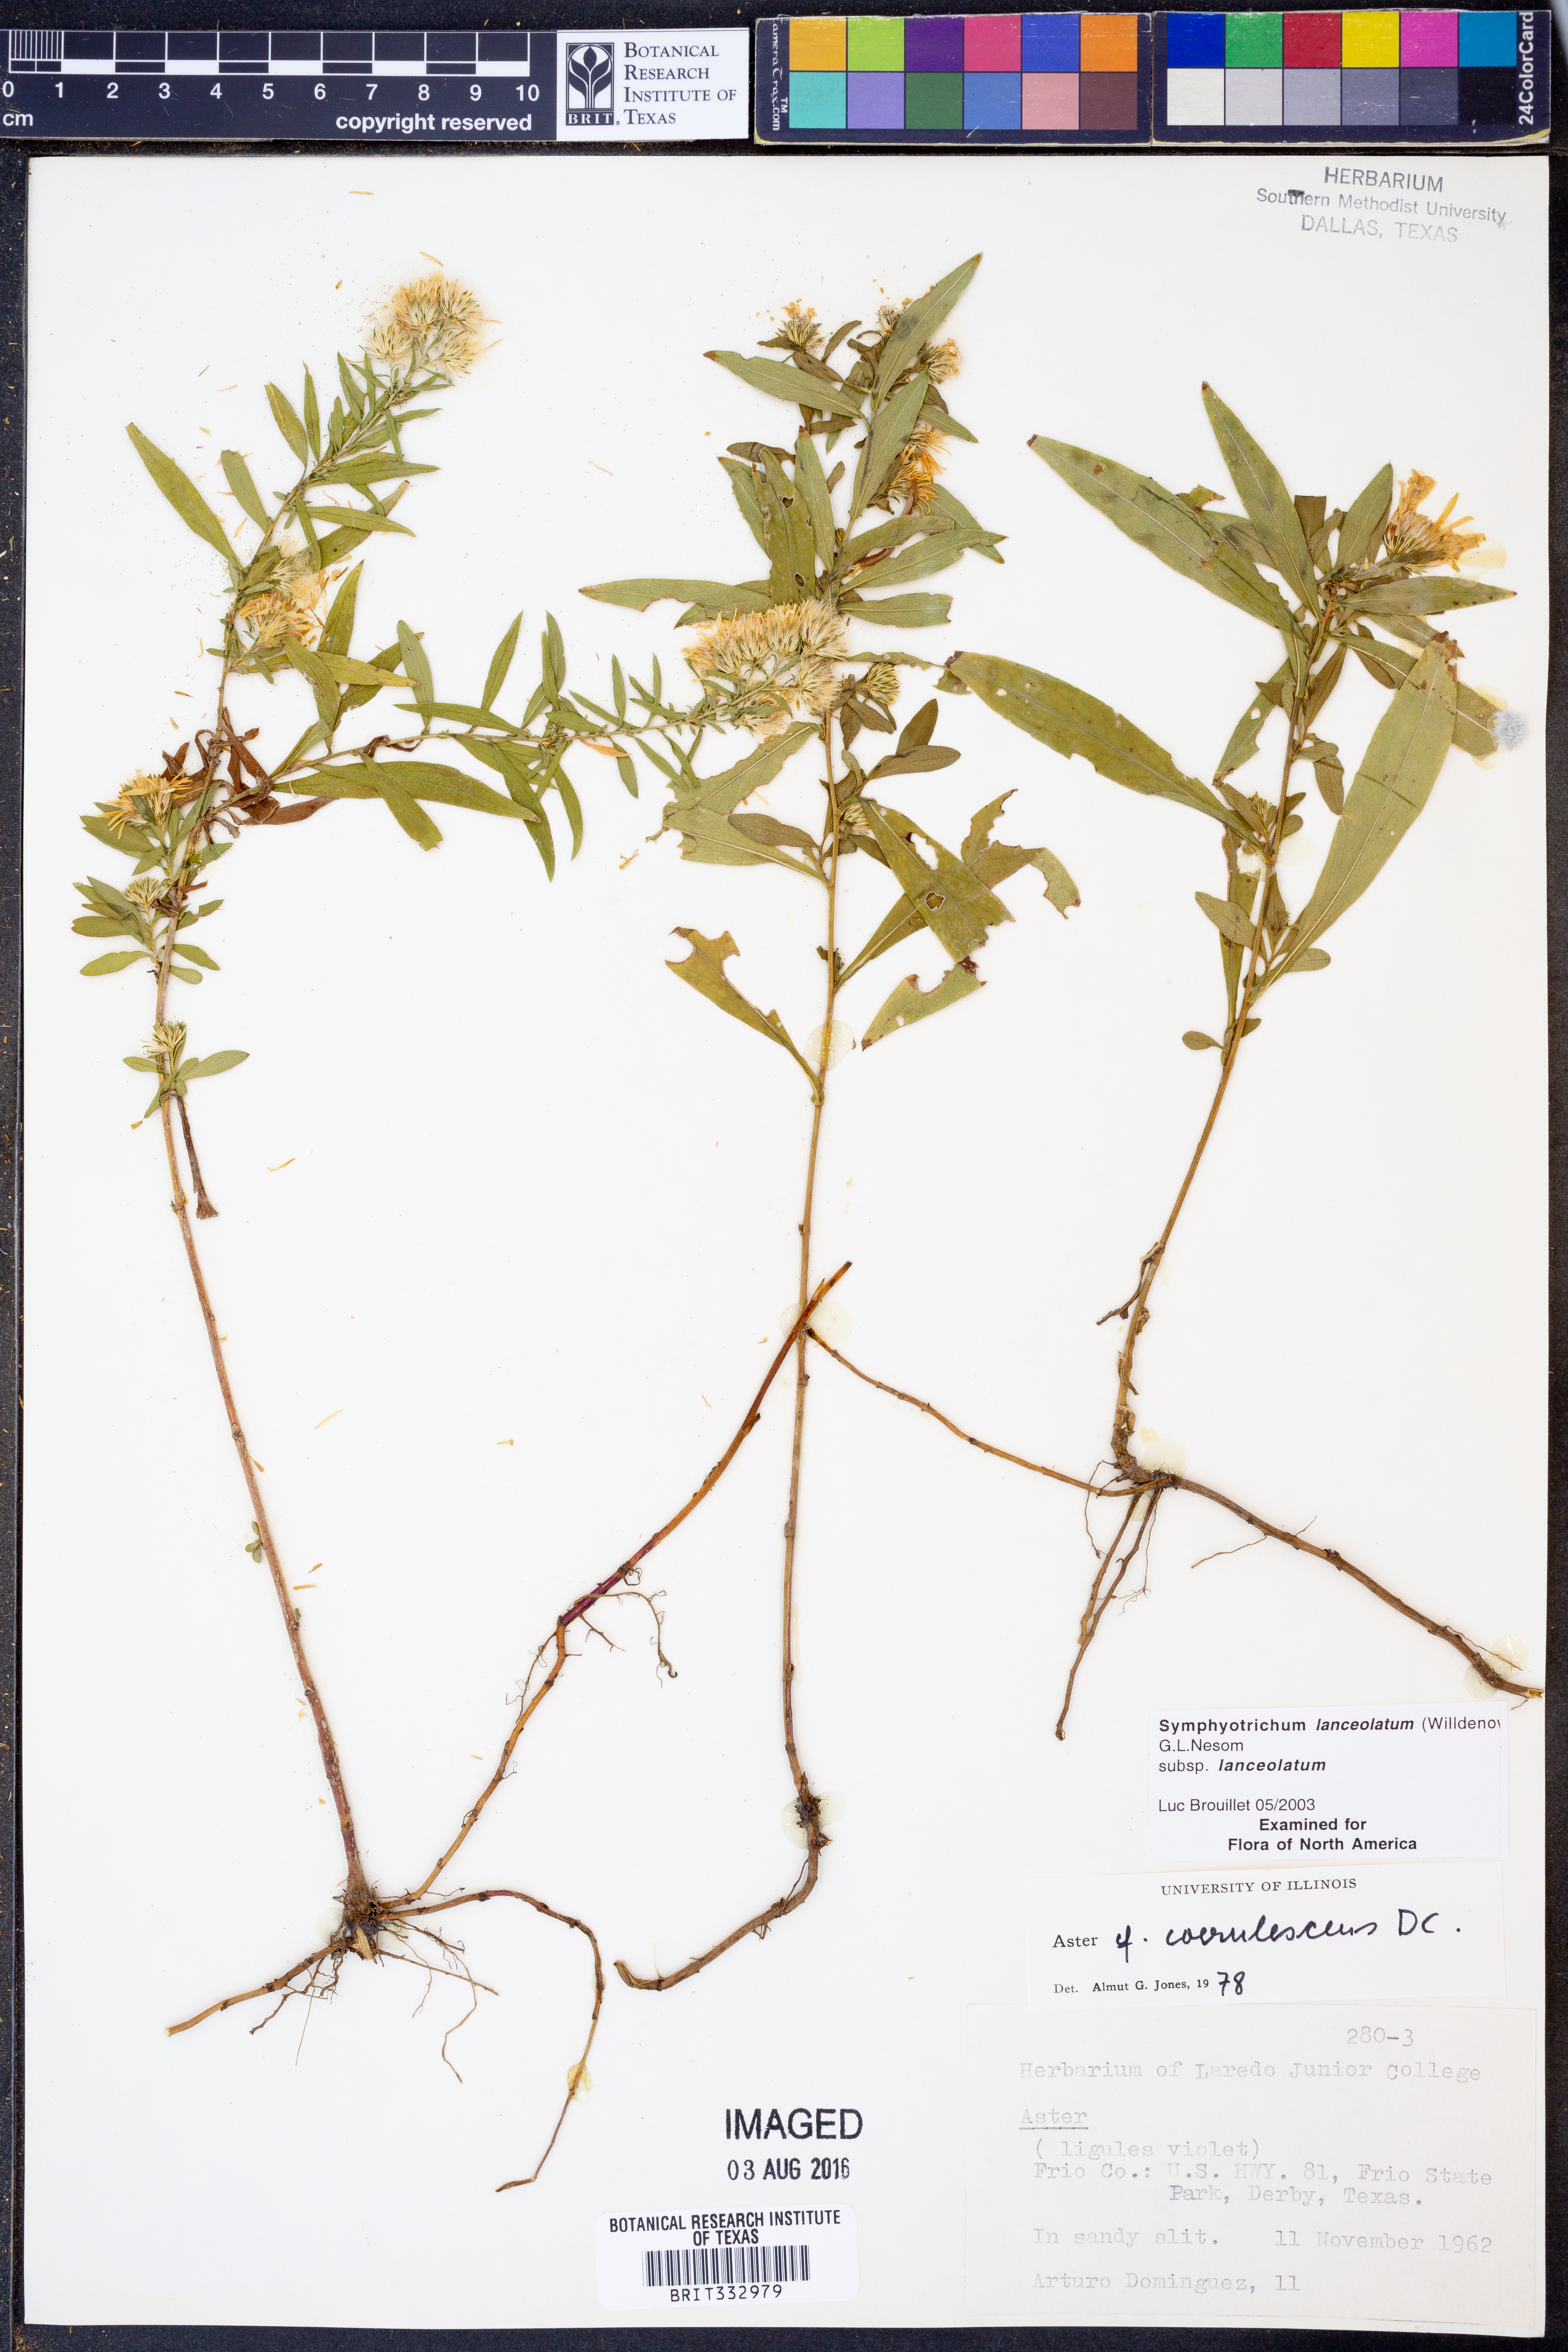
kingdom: Plantae
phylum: Tracheophyta
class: Magnoliopsida
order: Asterales
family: Asteraceae
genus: Symphyotrichum
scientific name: Symphyotrichum lanceolatum
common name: Panicled aster
